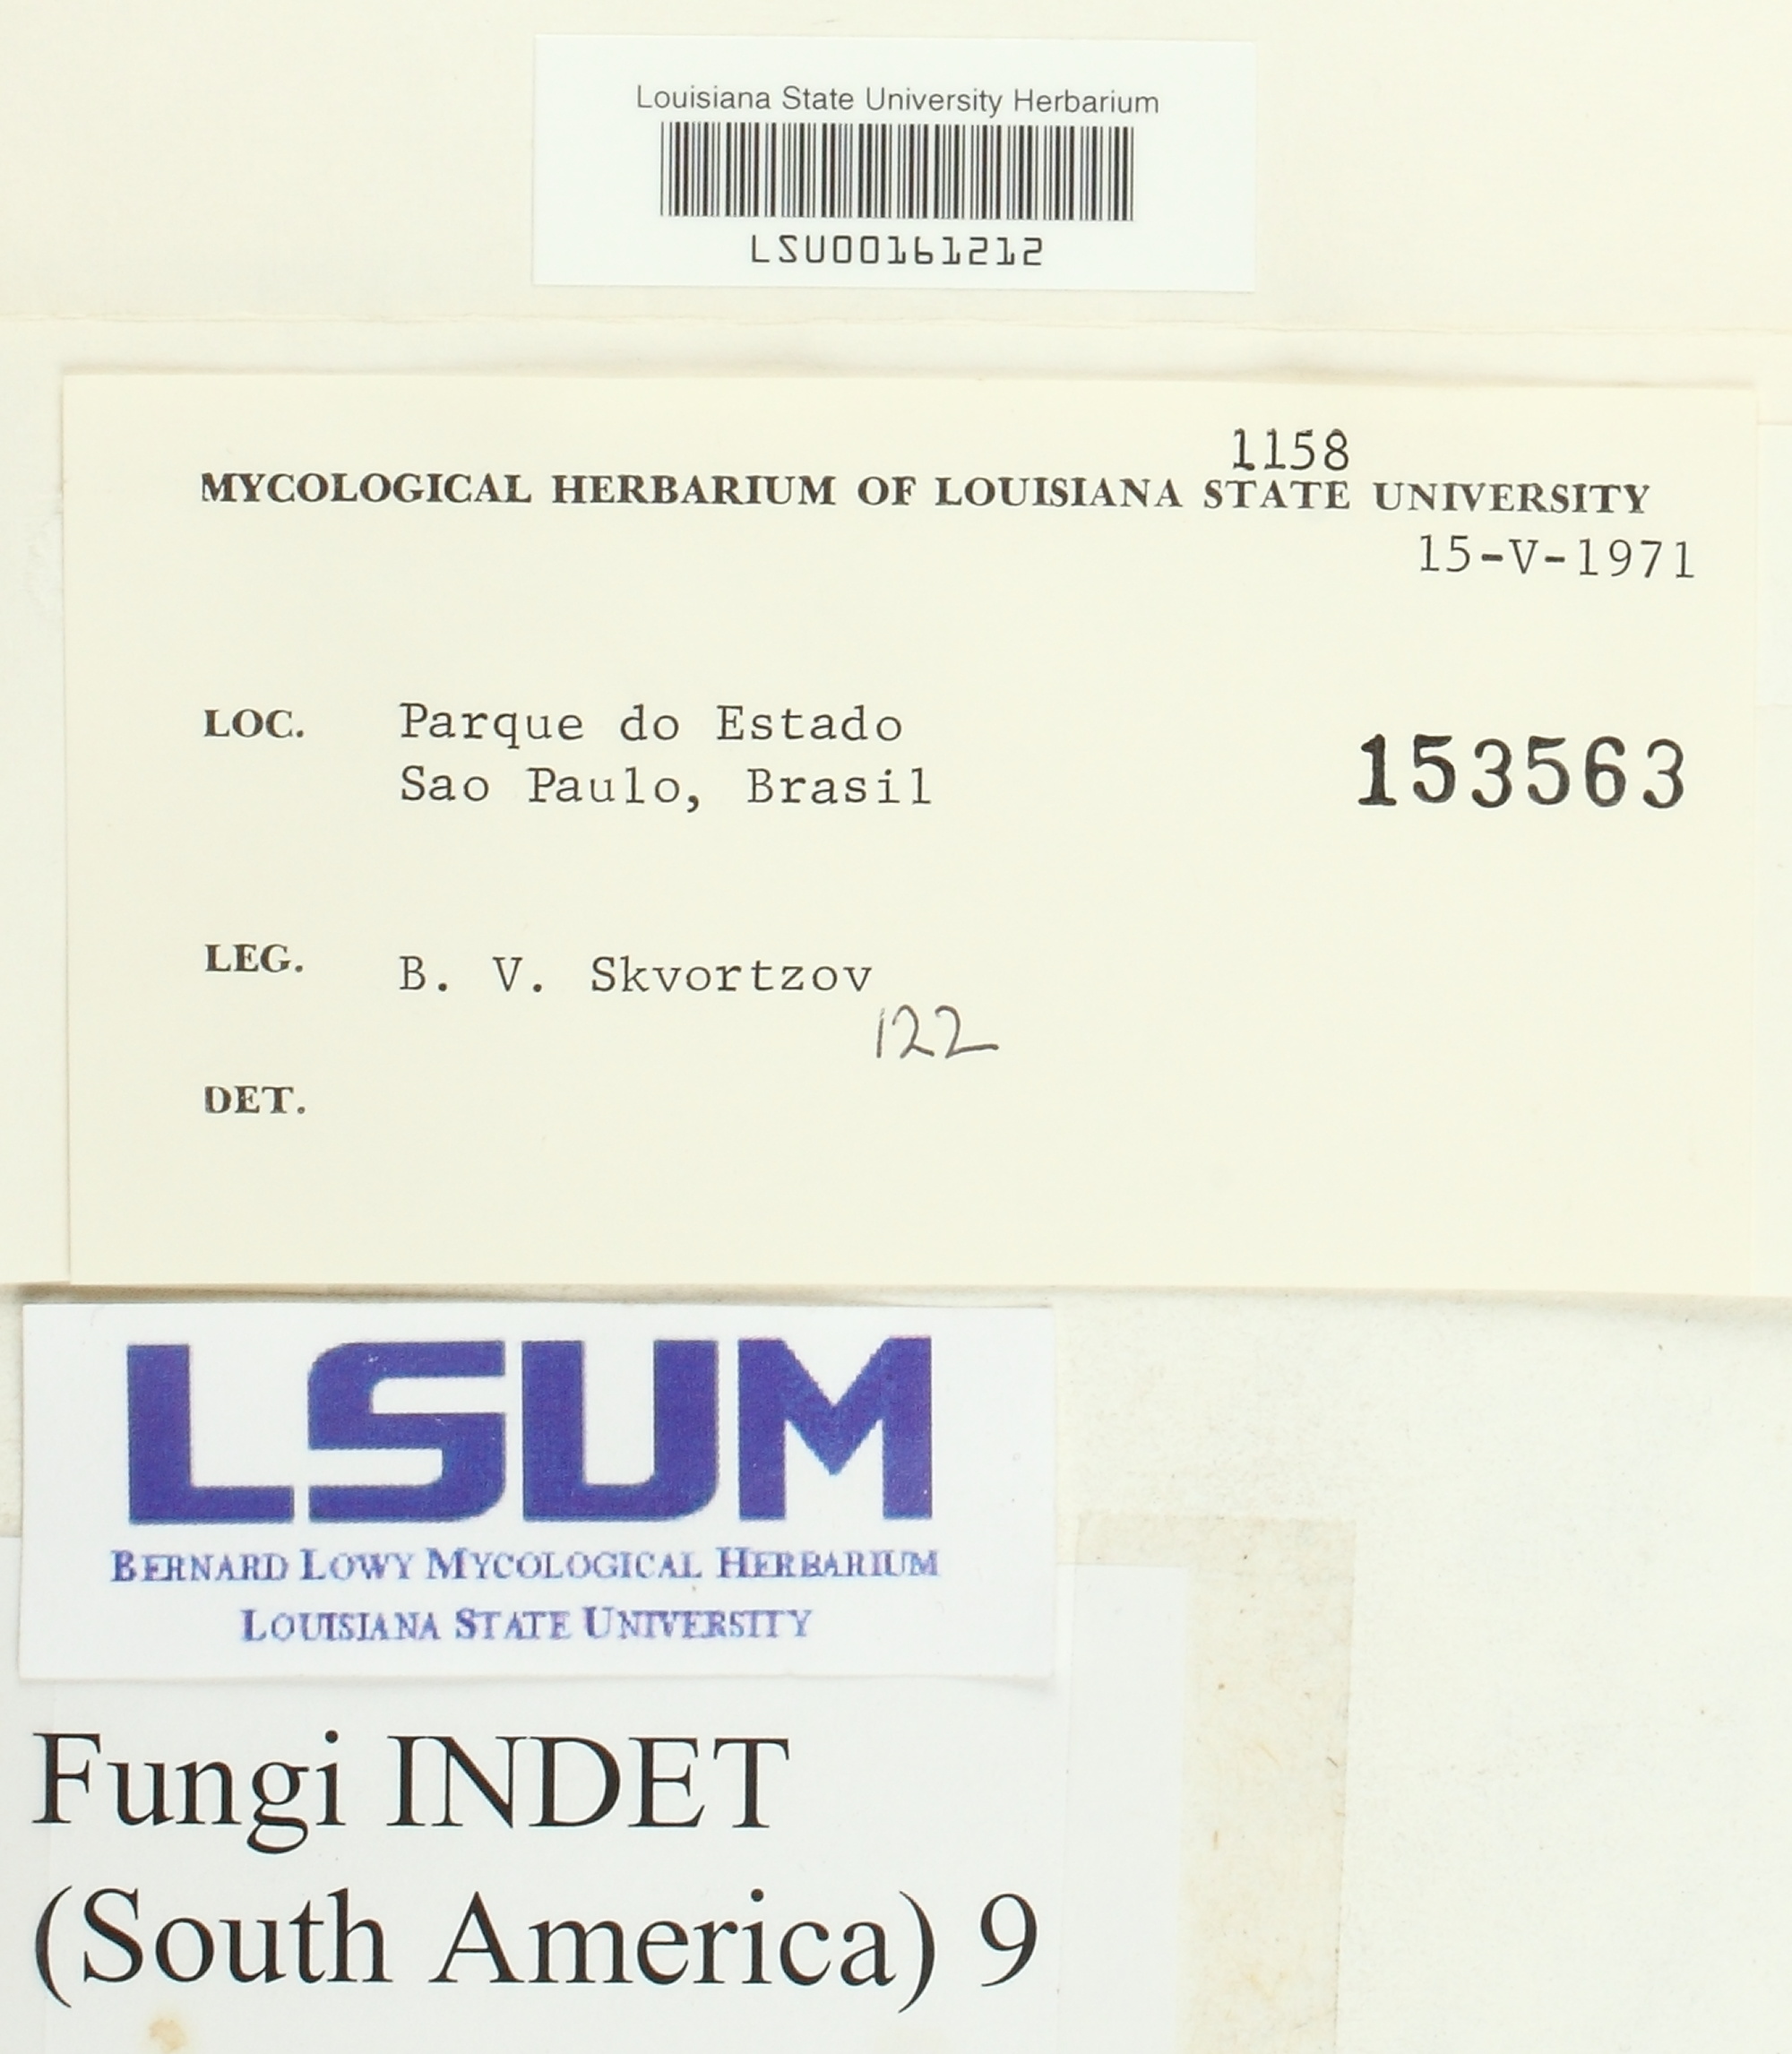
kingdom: Fungi
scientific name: Fungi
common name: Fungi
